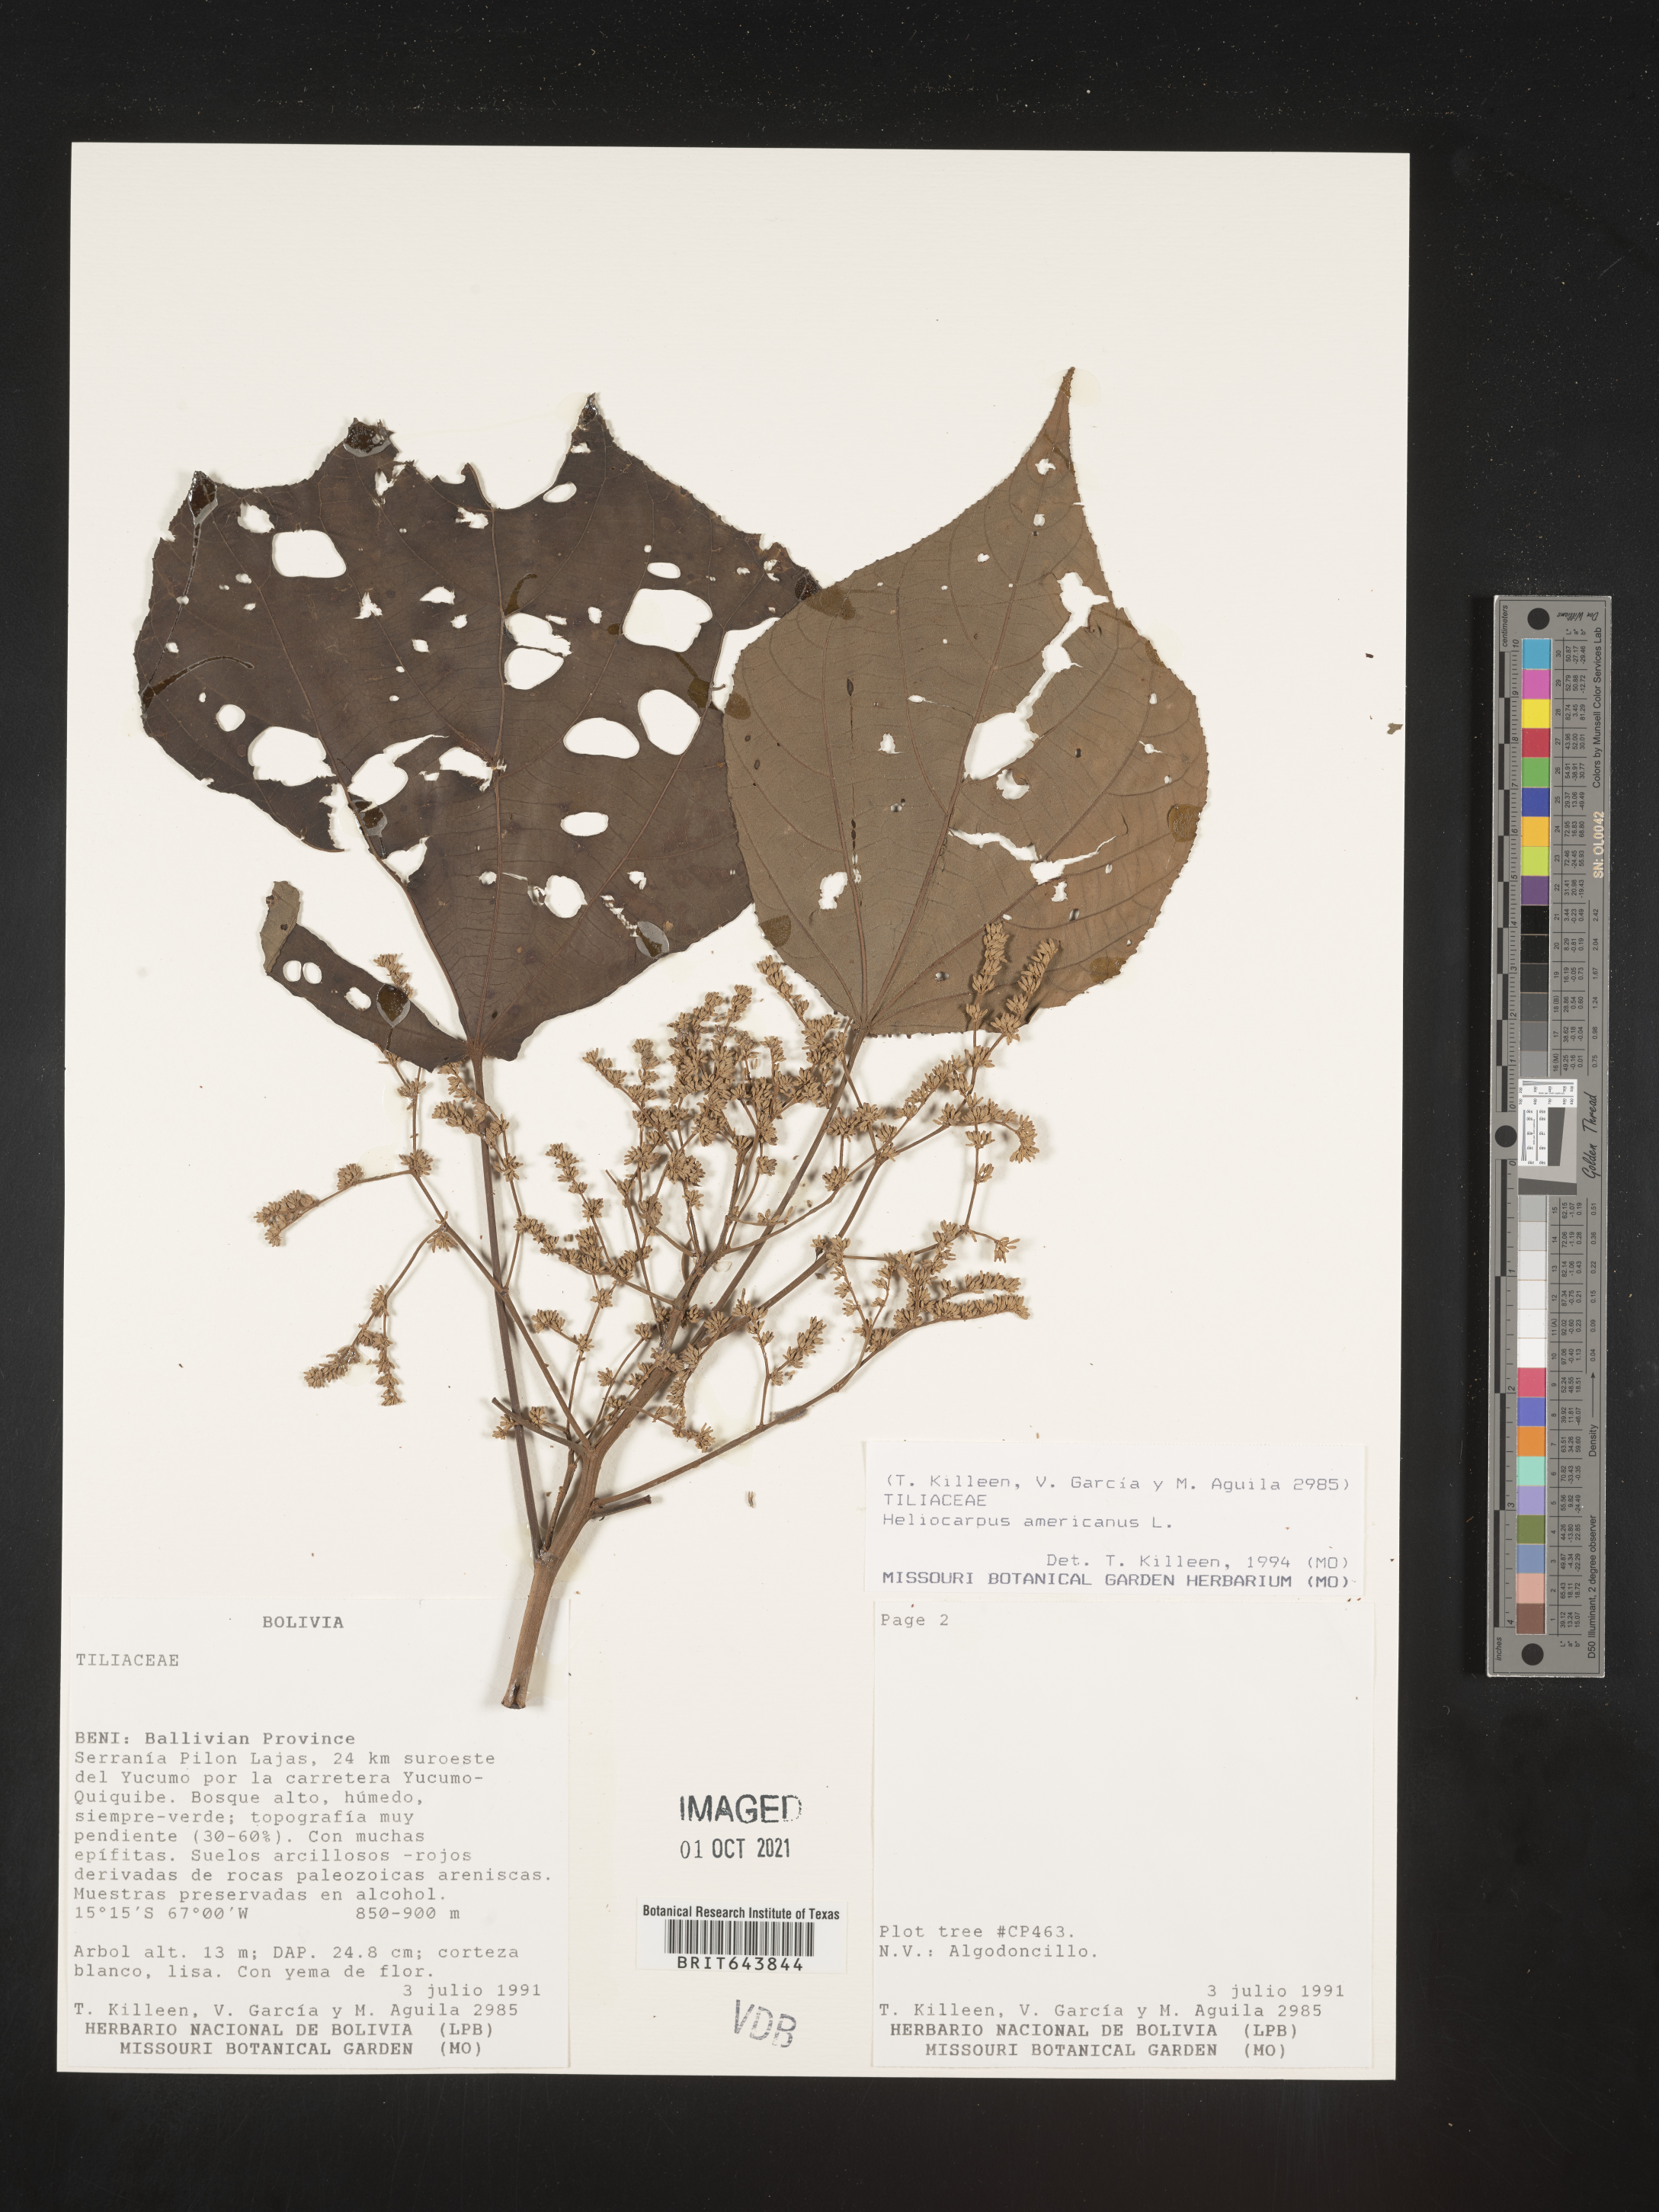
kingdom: Plantae
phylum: Tracheophyta
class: Magnoliopsida
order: Malvales
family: Malvaceae
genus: Heliocarpus
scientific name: Heliocarpus
